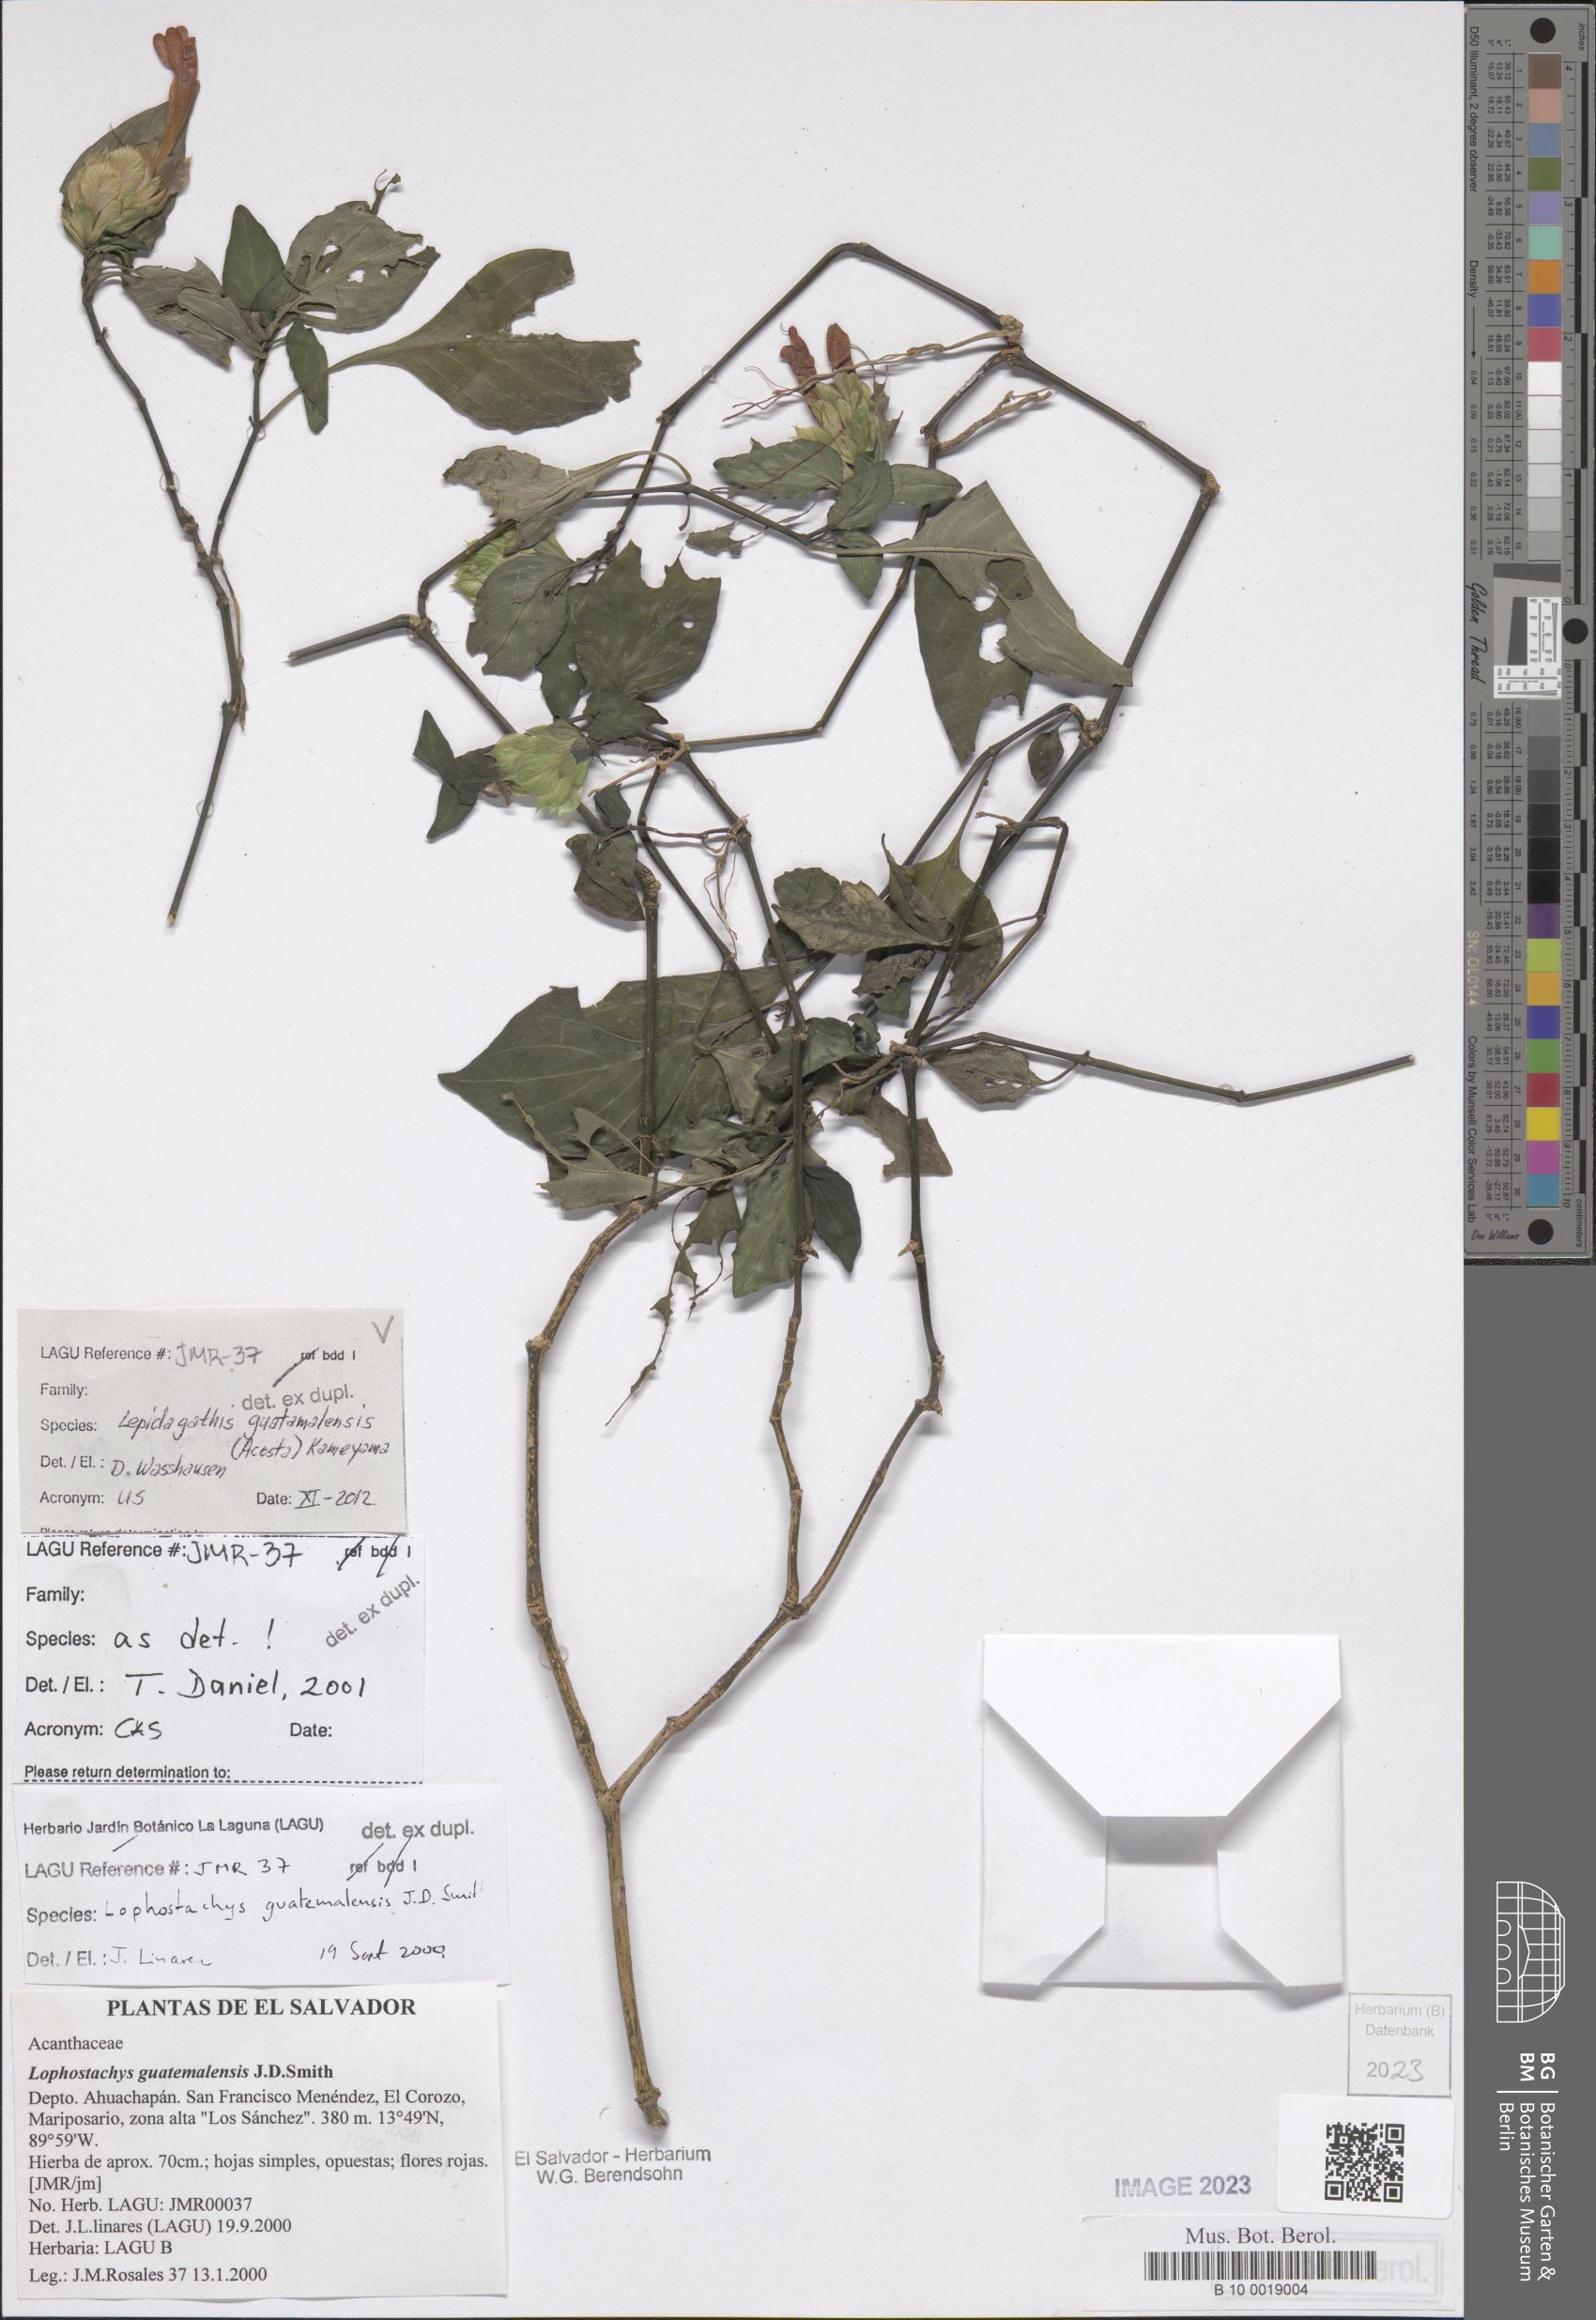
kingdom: Plantae
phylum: Tracheophyta
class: Magnoliopsida
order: Lamiales
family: Acanthaceae
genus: Lepidagathis
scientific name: Lepidagathis guatemalensis
